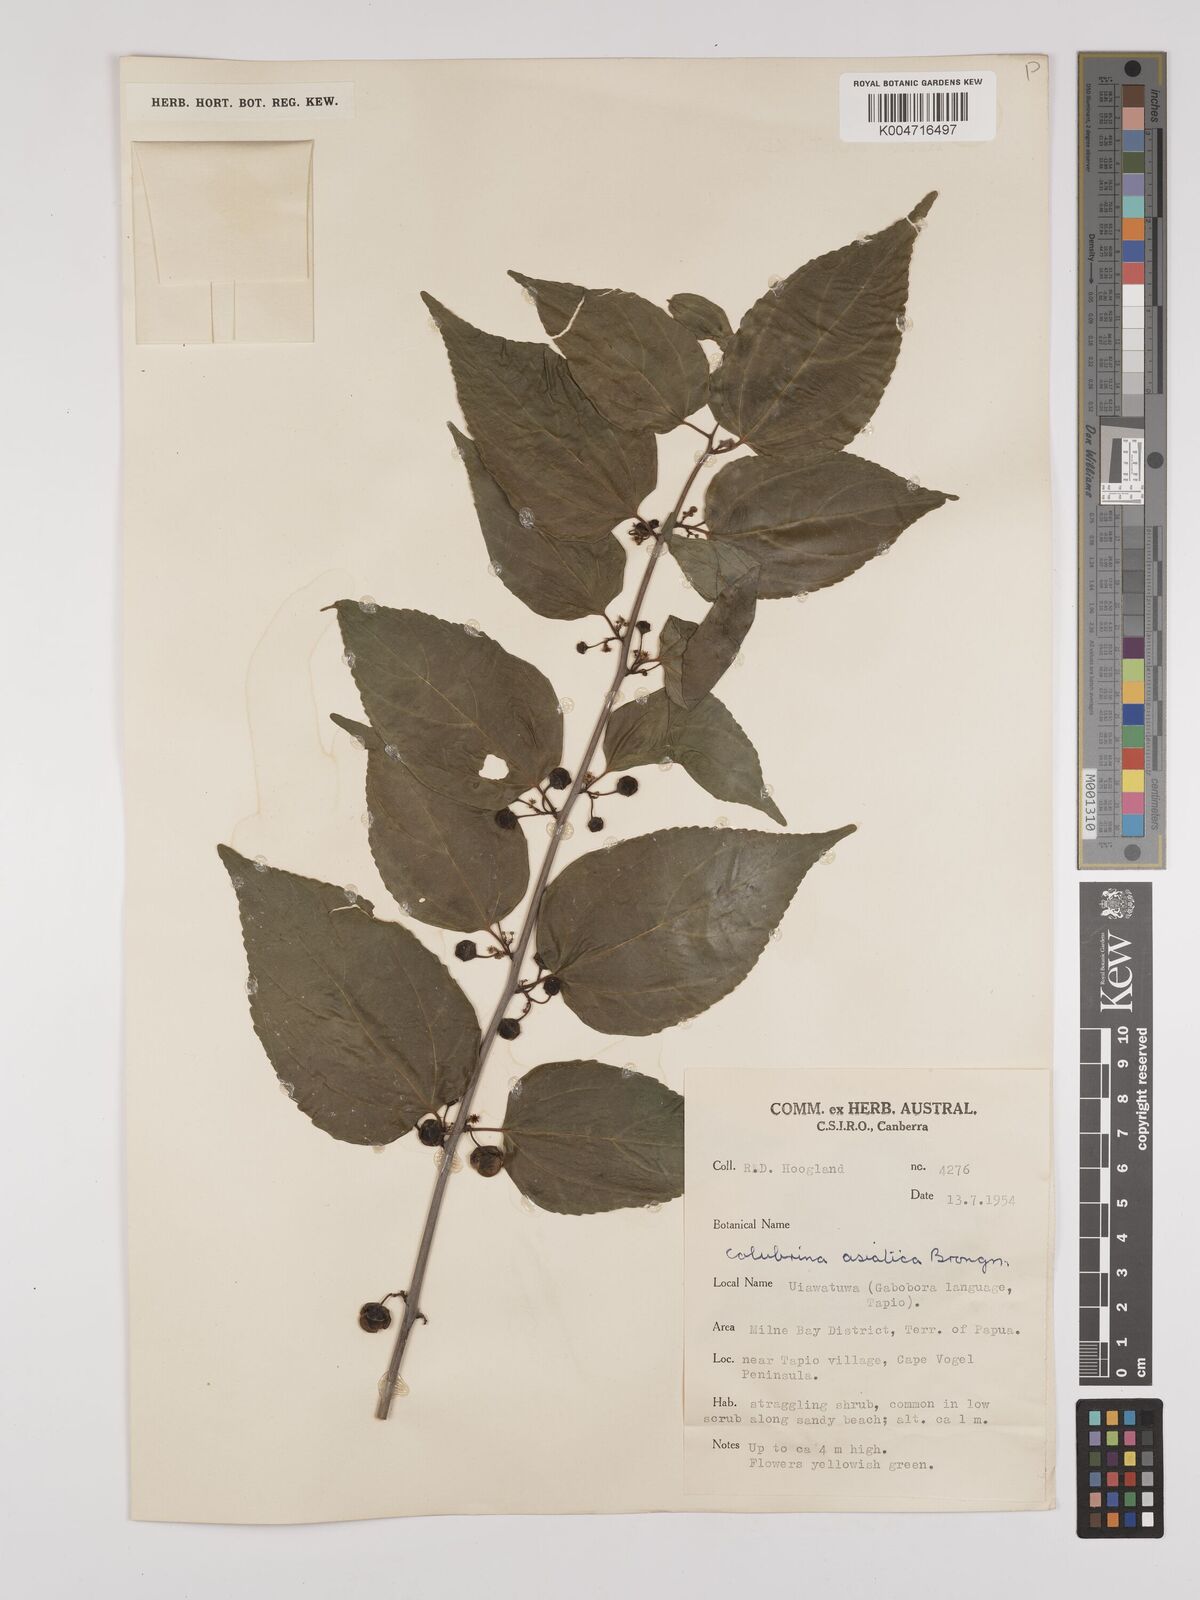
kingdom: Plantae
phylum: Tracheophyta
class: Magnoliopsida
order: Rosales
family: Rhamnaceae
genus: Colubrina
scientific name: Colubrina asiatica
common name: Asian nakedwood
